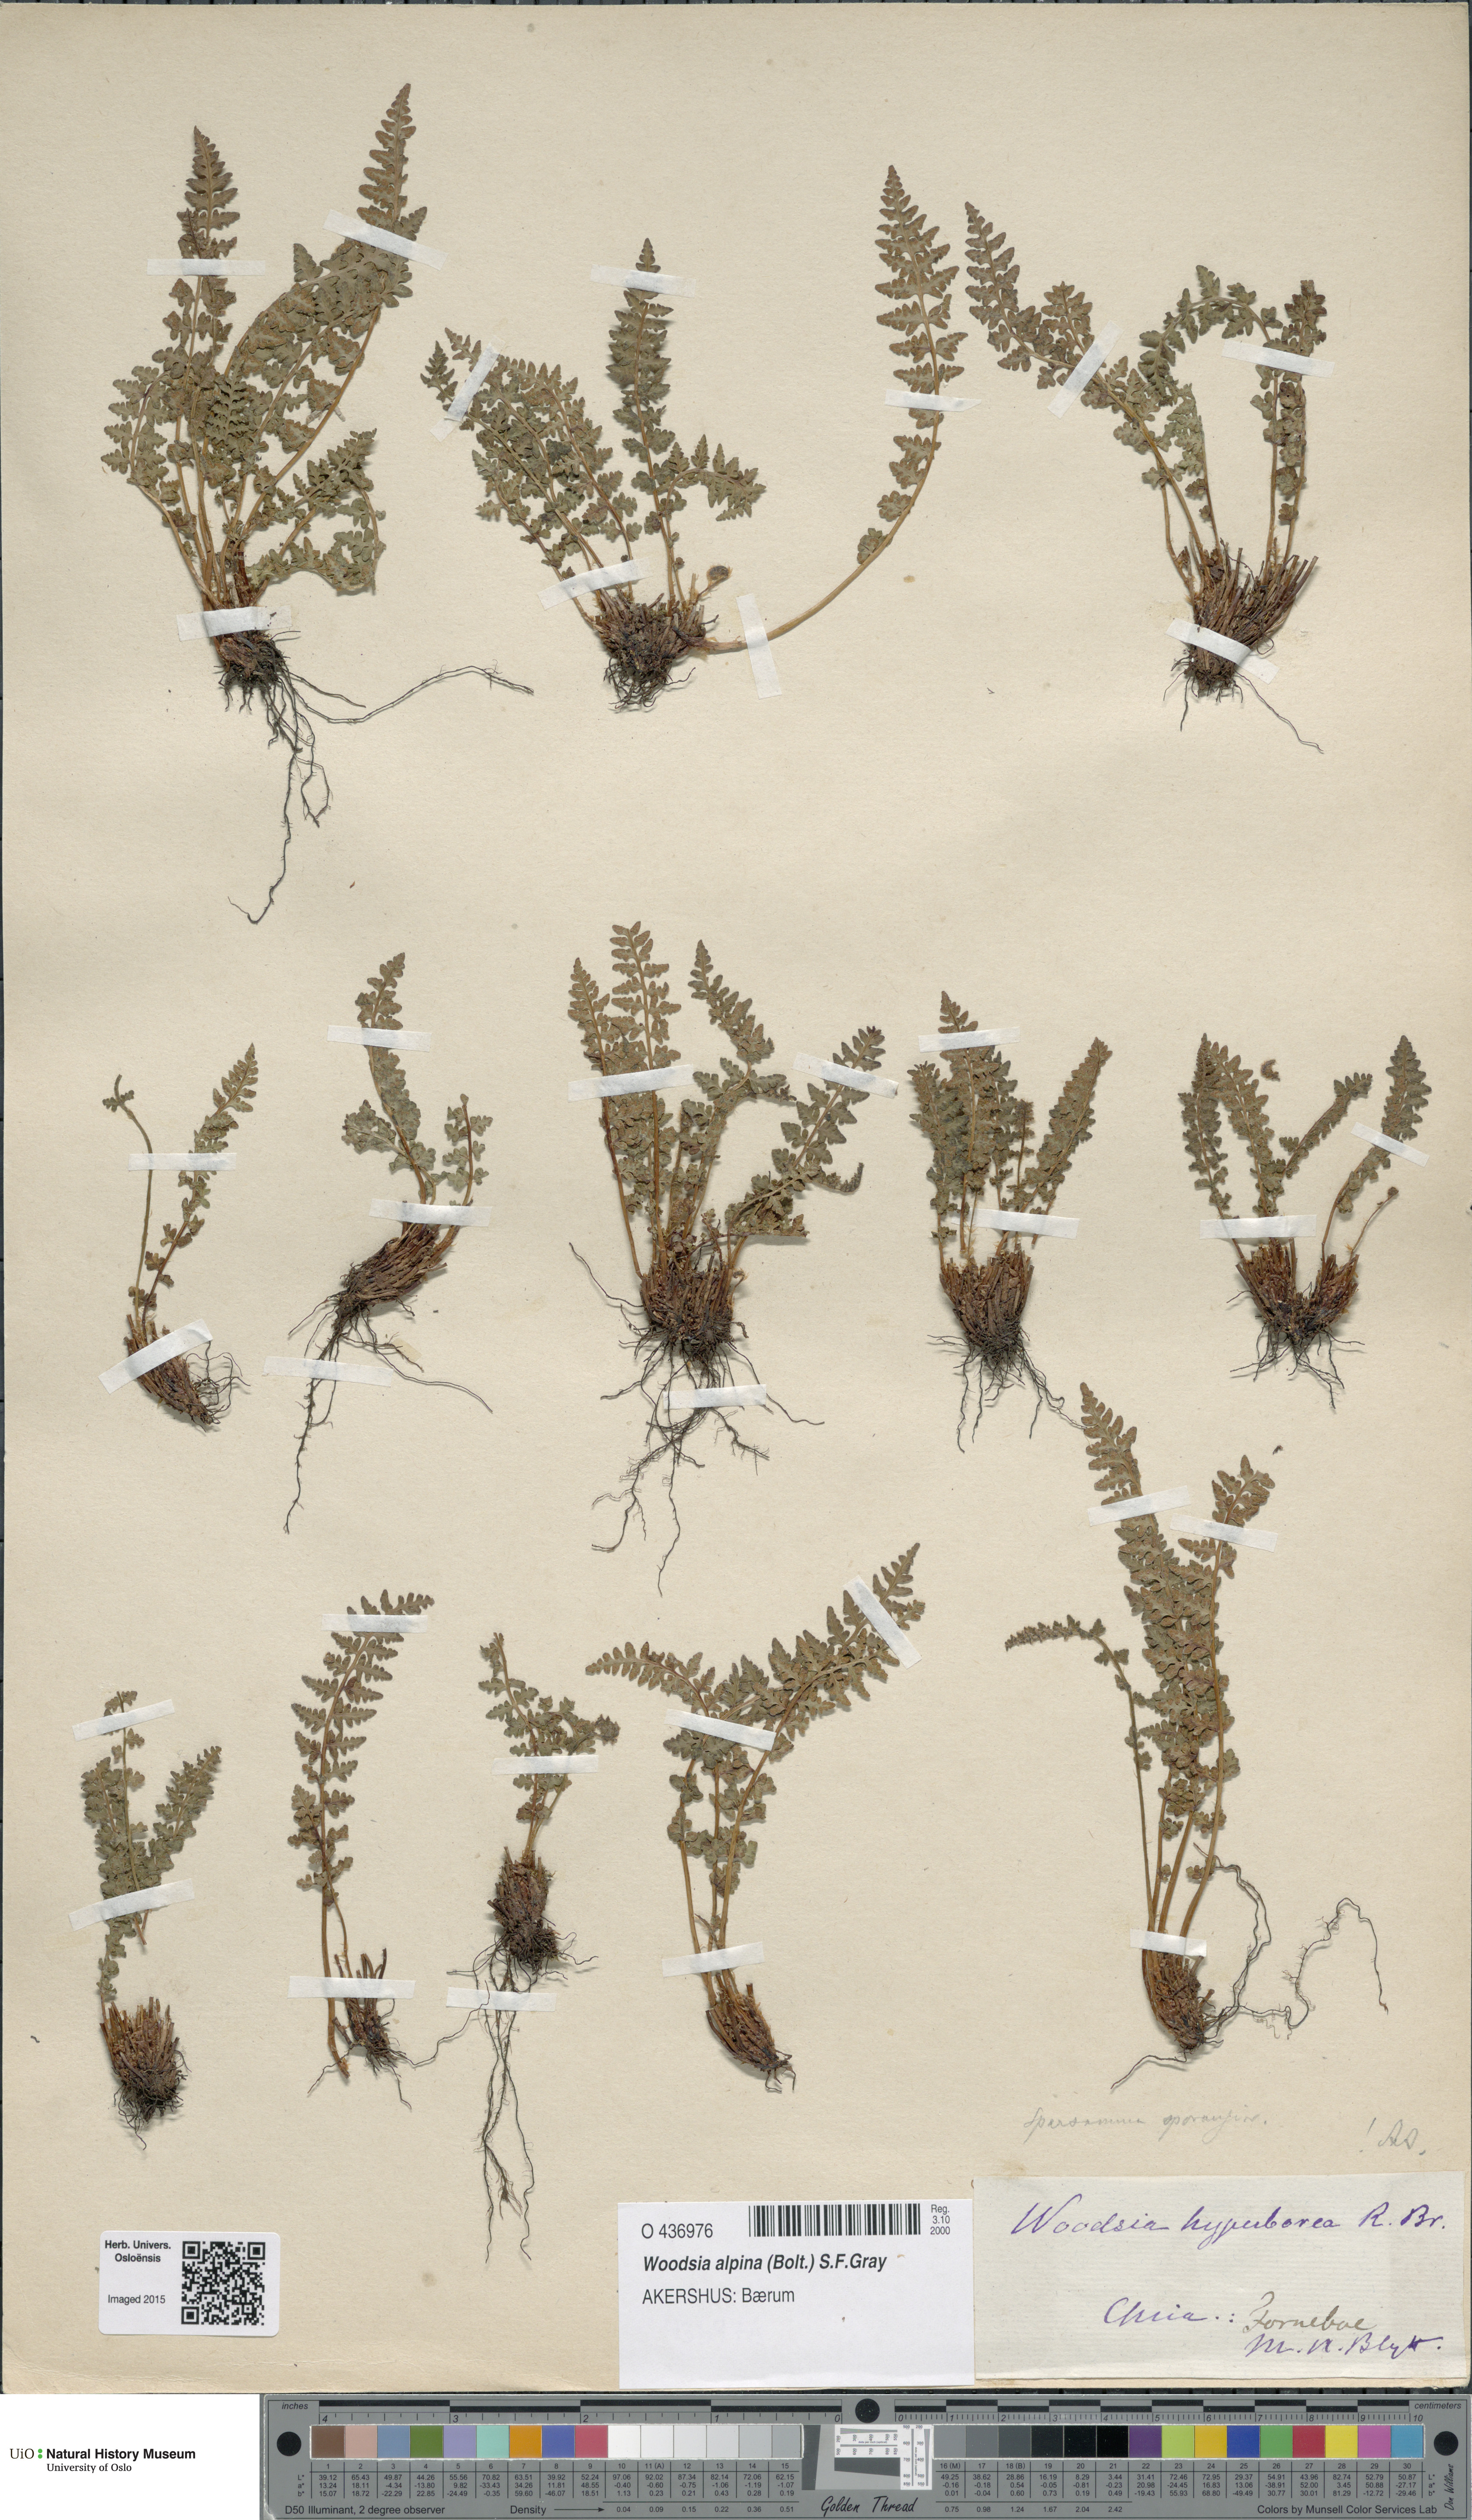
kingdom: Plantae
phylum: Tracheophyta
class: Polypodiopsida
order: Polypodiales
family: Woodsiaceae
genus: Woodsia
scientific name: Woodsia alpina
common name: Alpine woodsia
